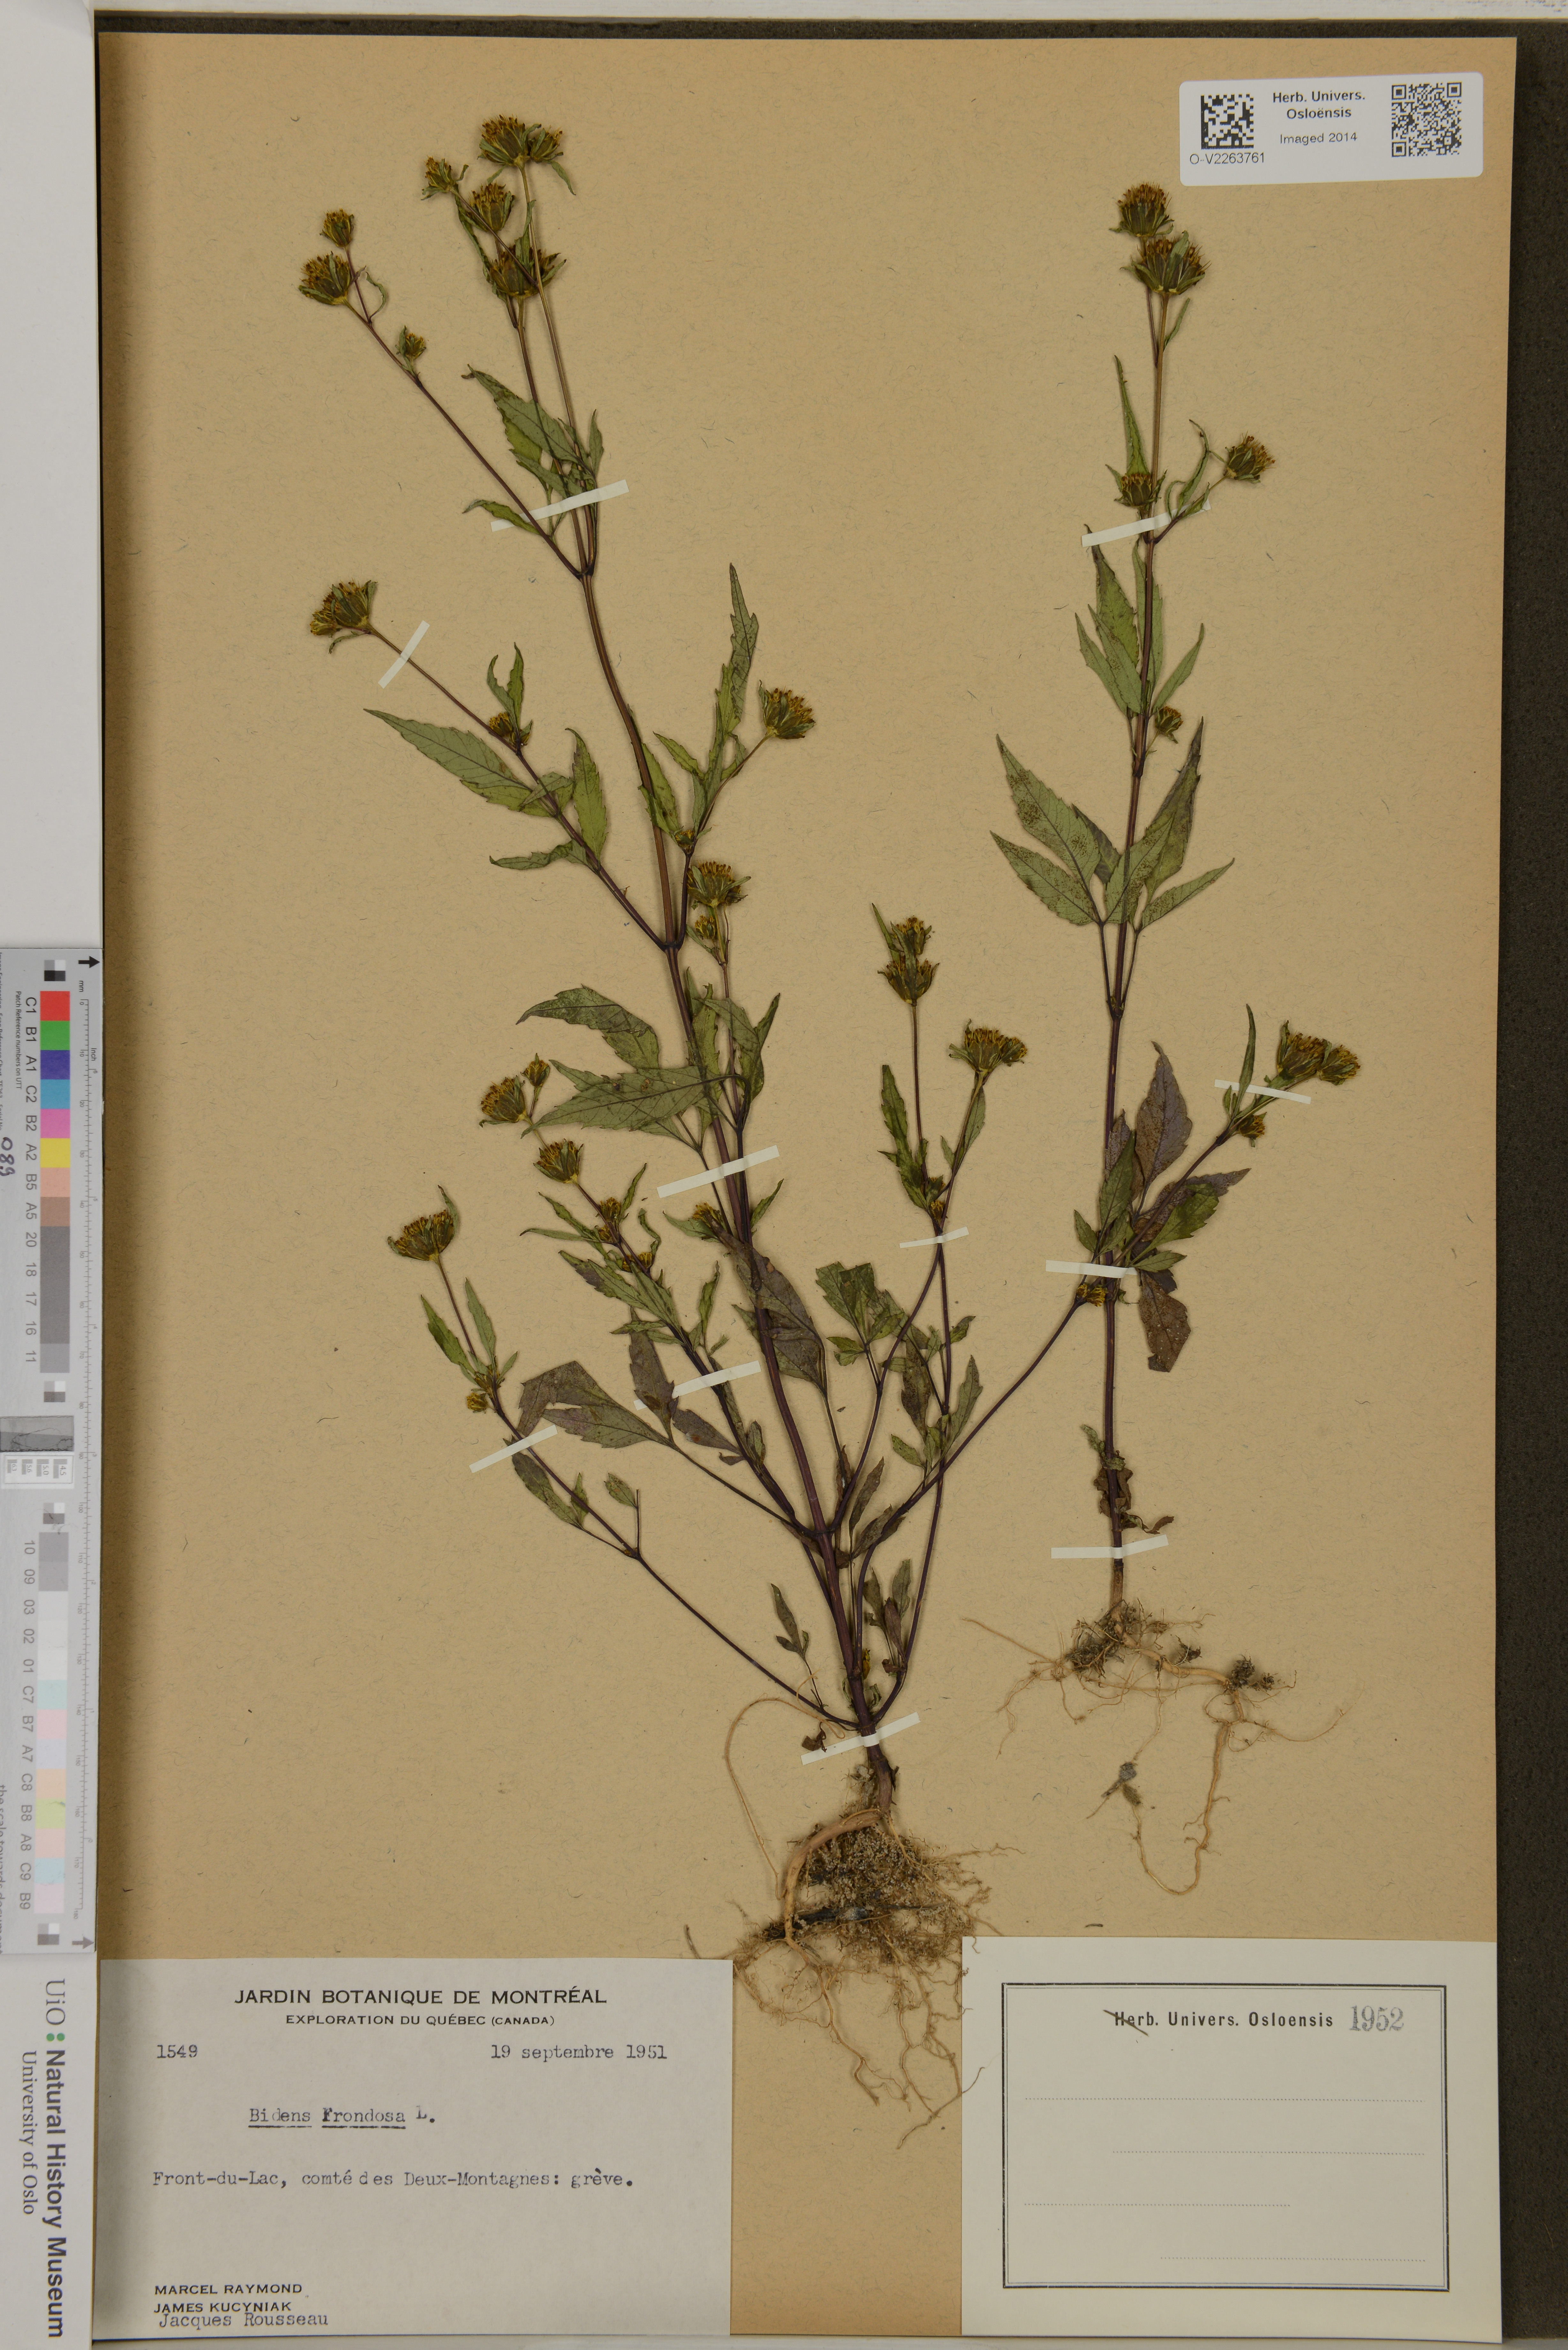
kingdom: Plantae
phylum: Tracheophyta
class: Magnoliopsida
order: Asterales
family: Asteraceae
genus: Bidens
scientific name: Bidens frondosa
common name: Beggarticks
